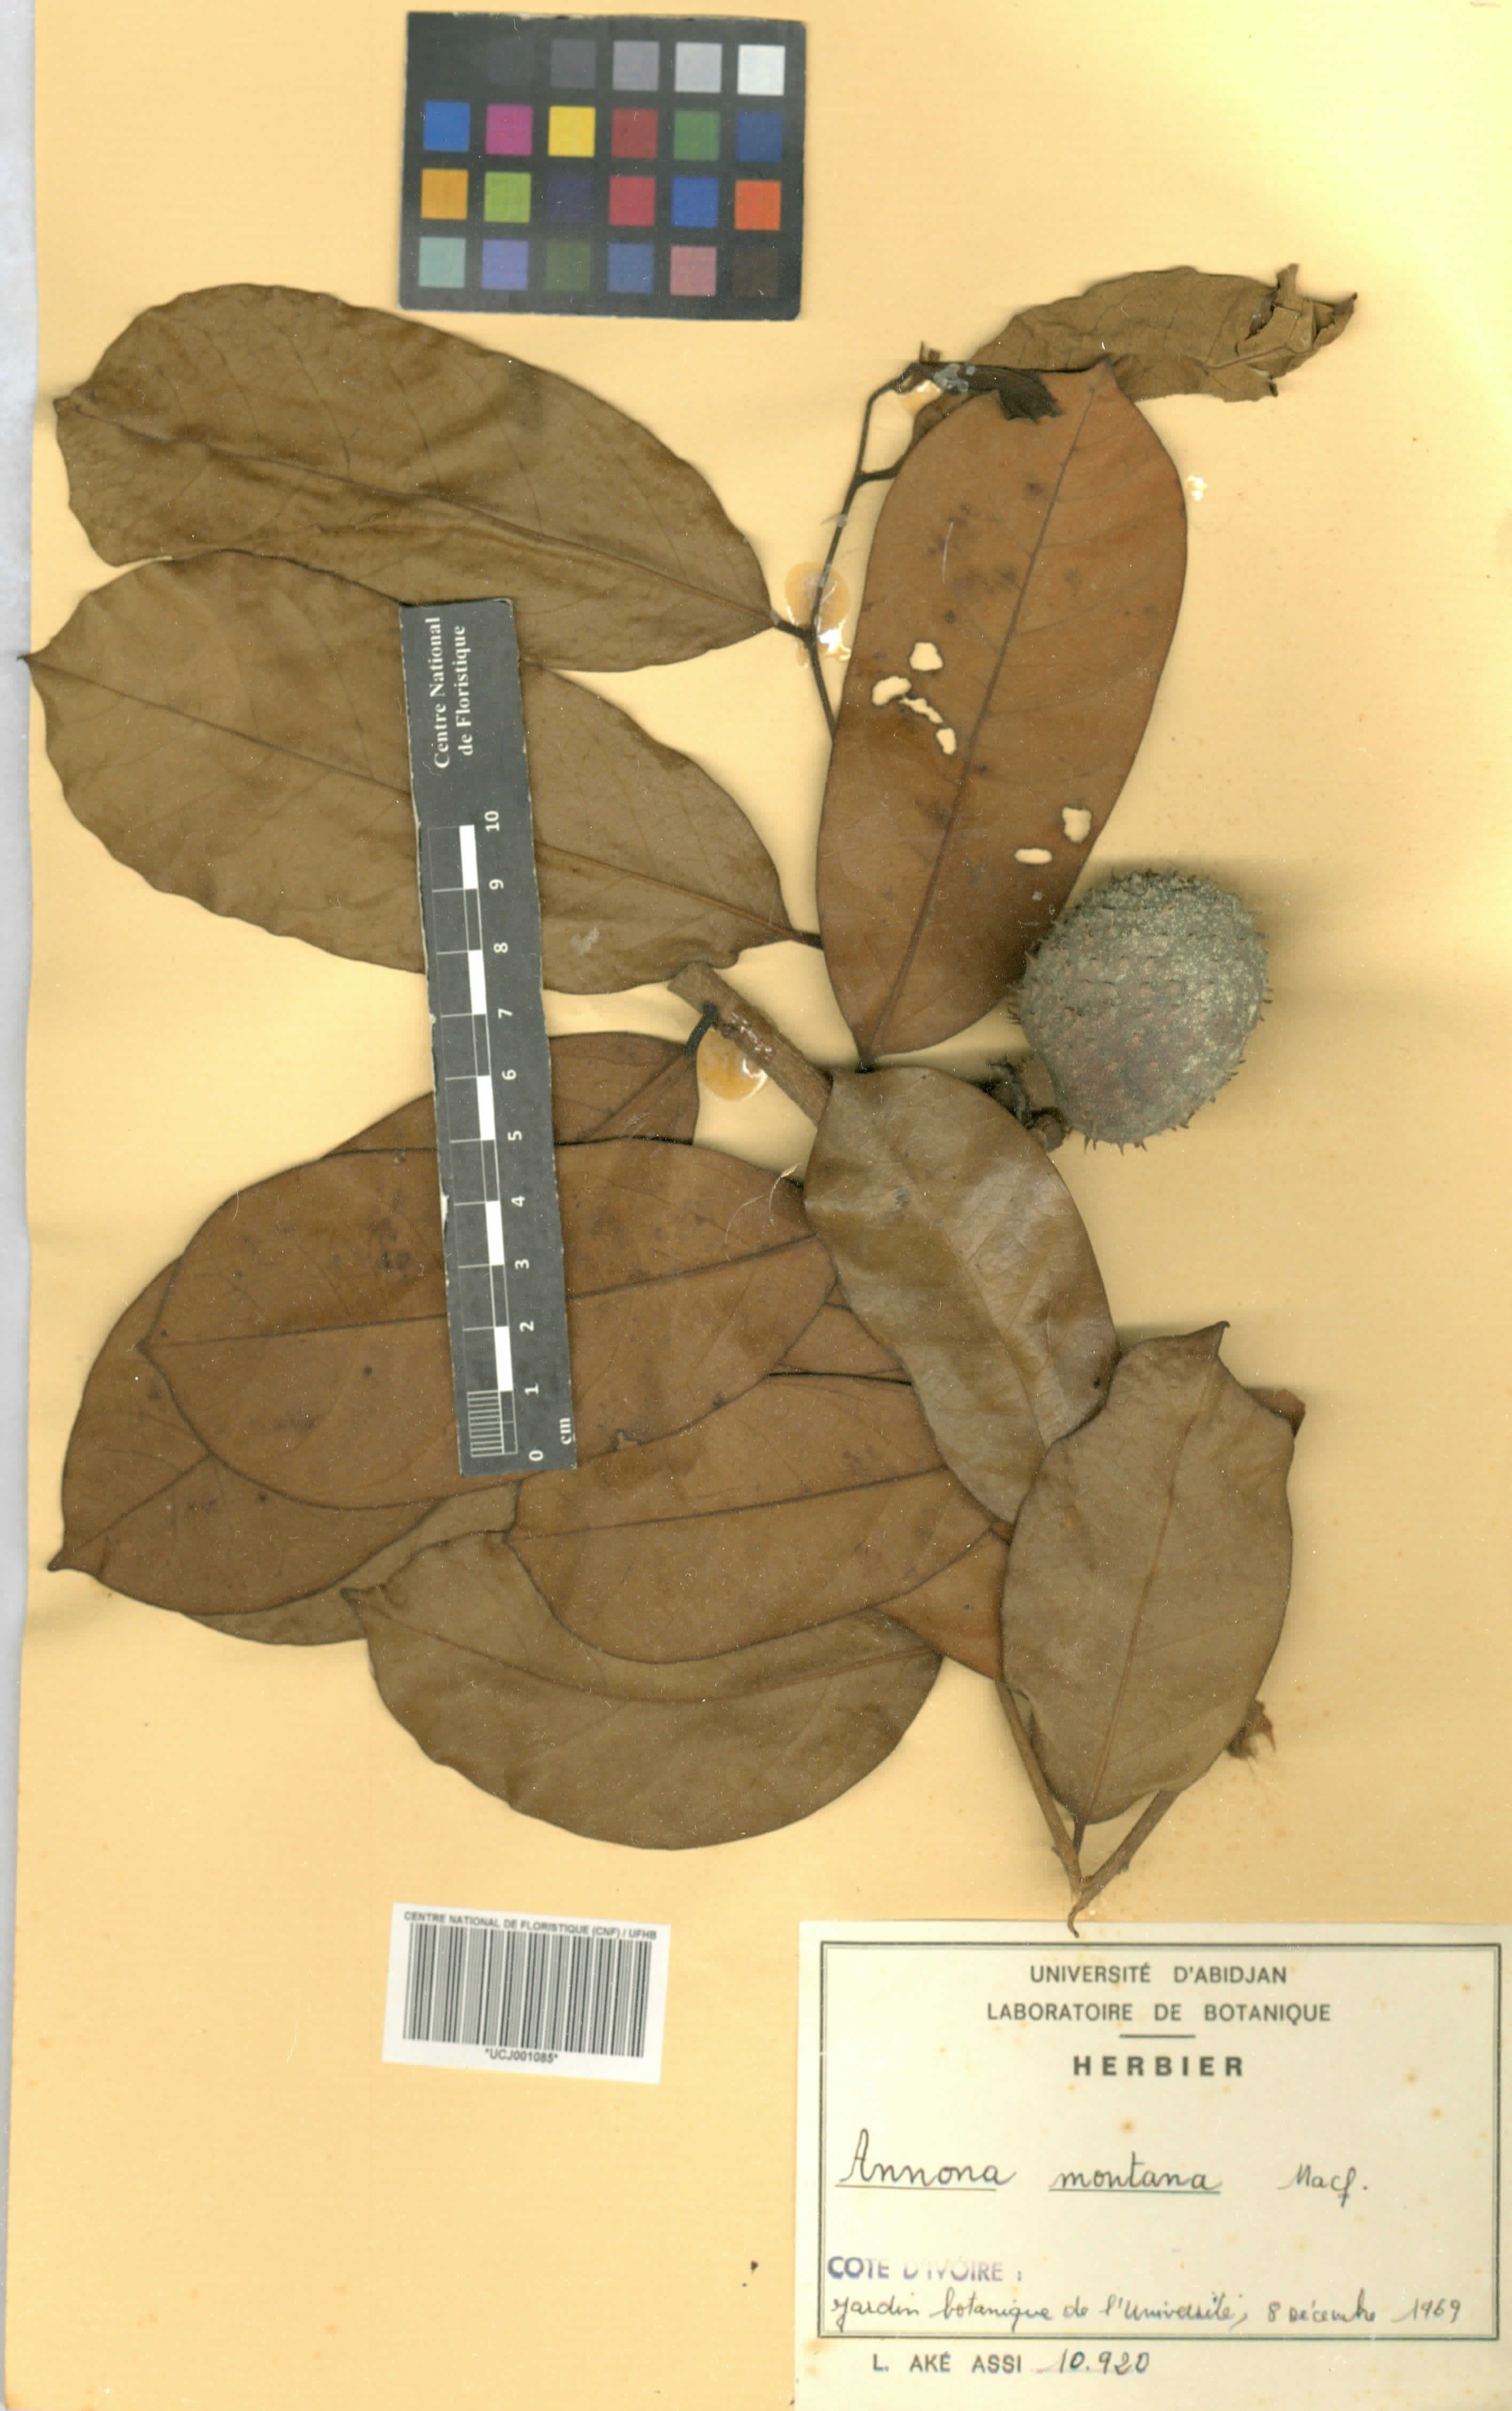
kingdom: Plantae
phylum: Tracheophyta
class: Magnoliopsida
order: Magnoliales
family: Annonaceae
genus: Annona
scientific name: Annona montana
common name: Mountain soursop
